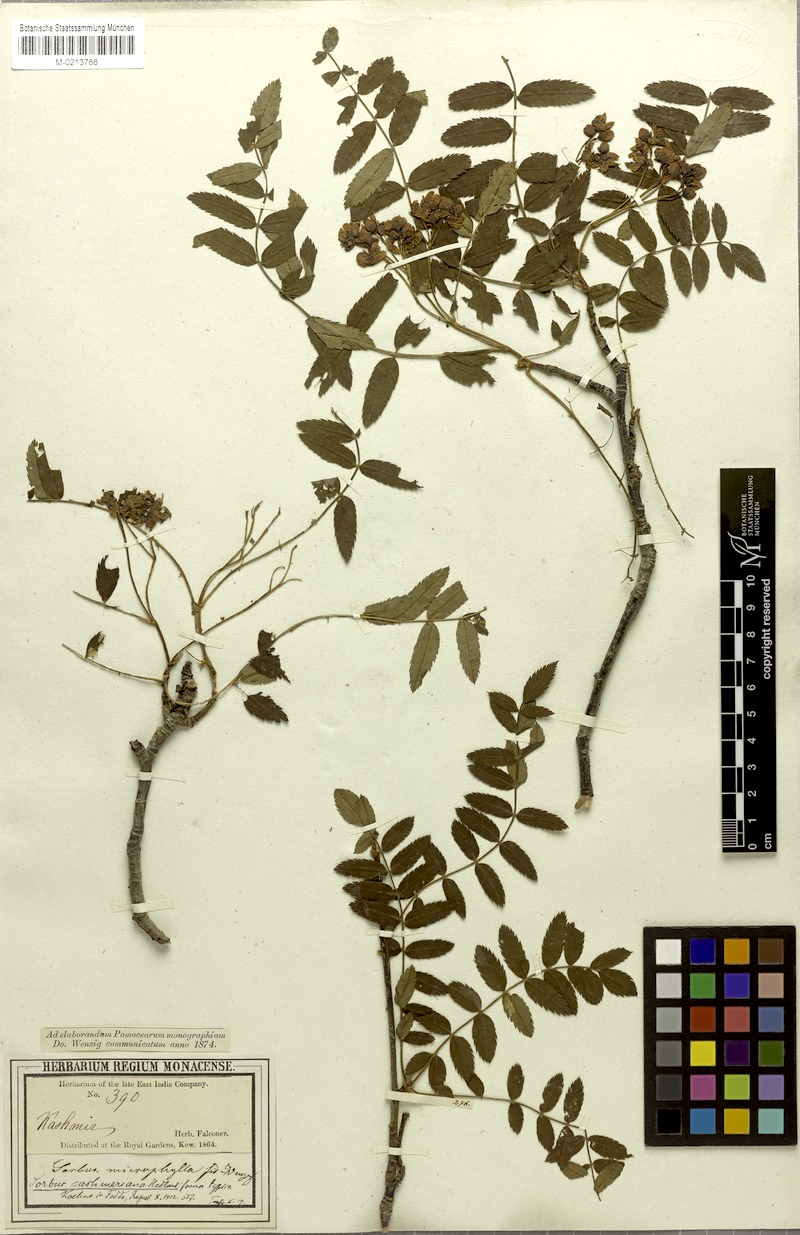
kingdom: Plantae
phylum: Tracheophyta
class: Magnoliopsida
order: Rosales
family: Rosaceae
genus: Sorbus
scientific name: Sorbus microphylla
